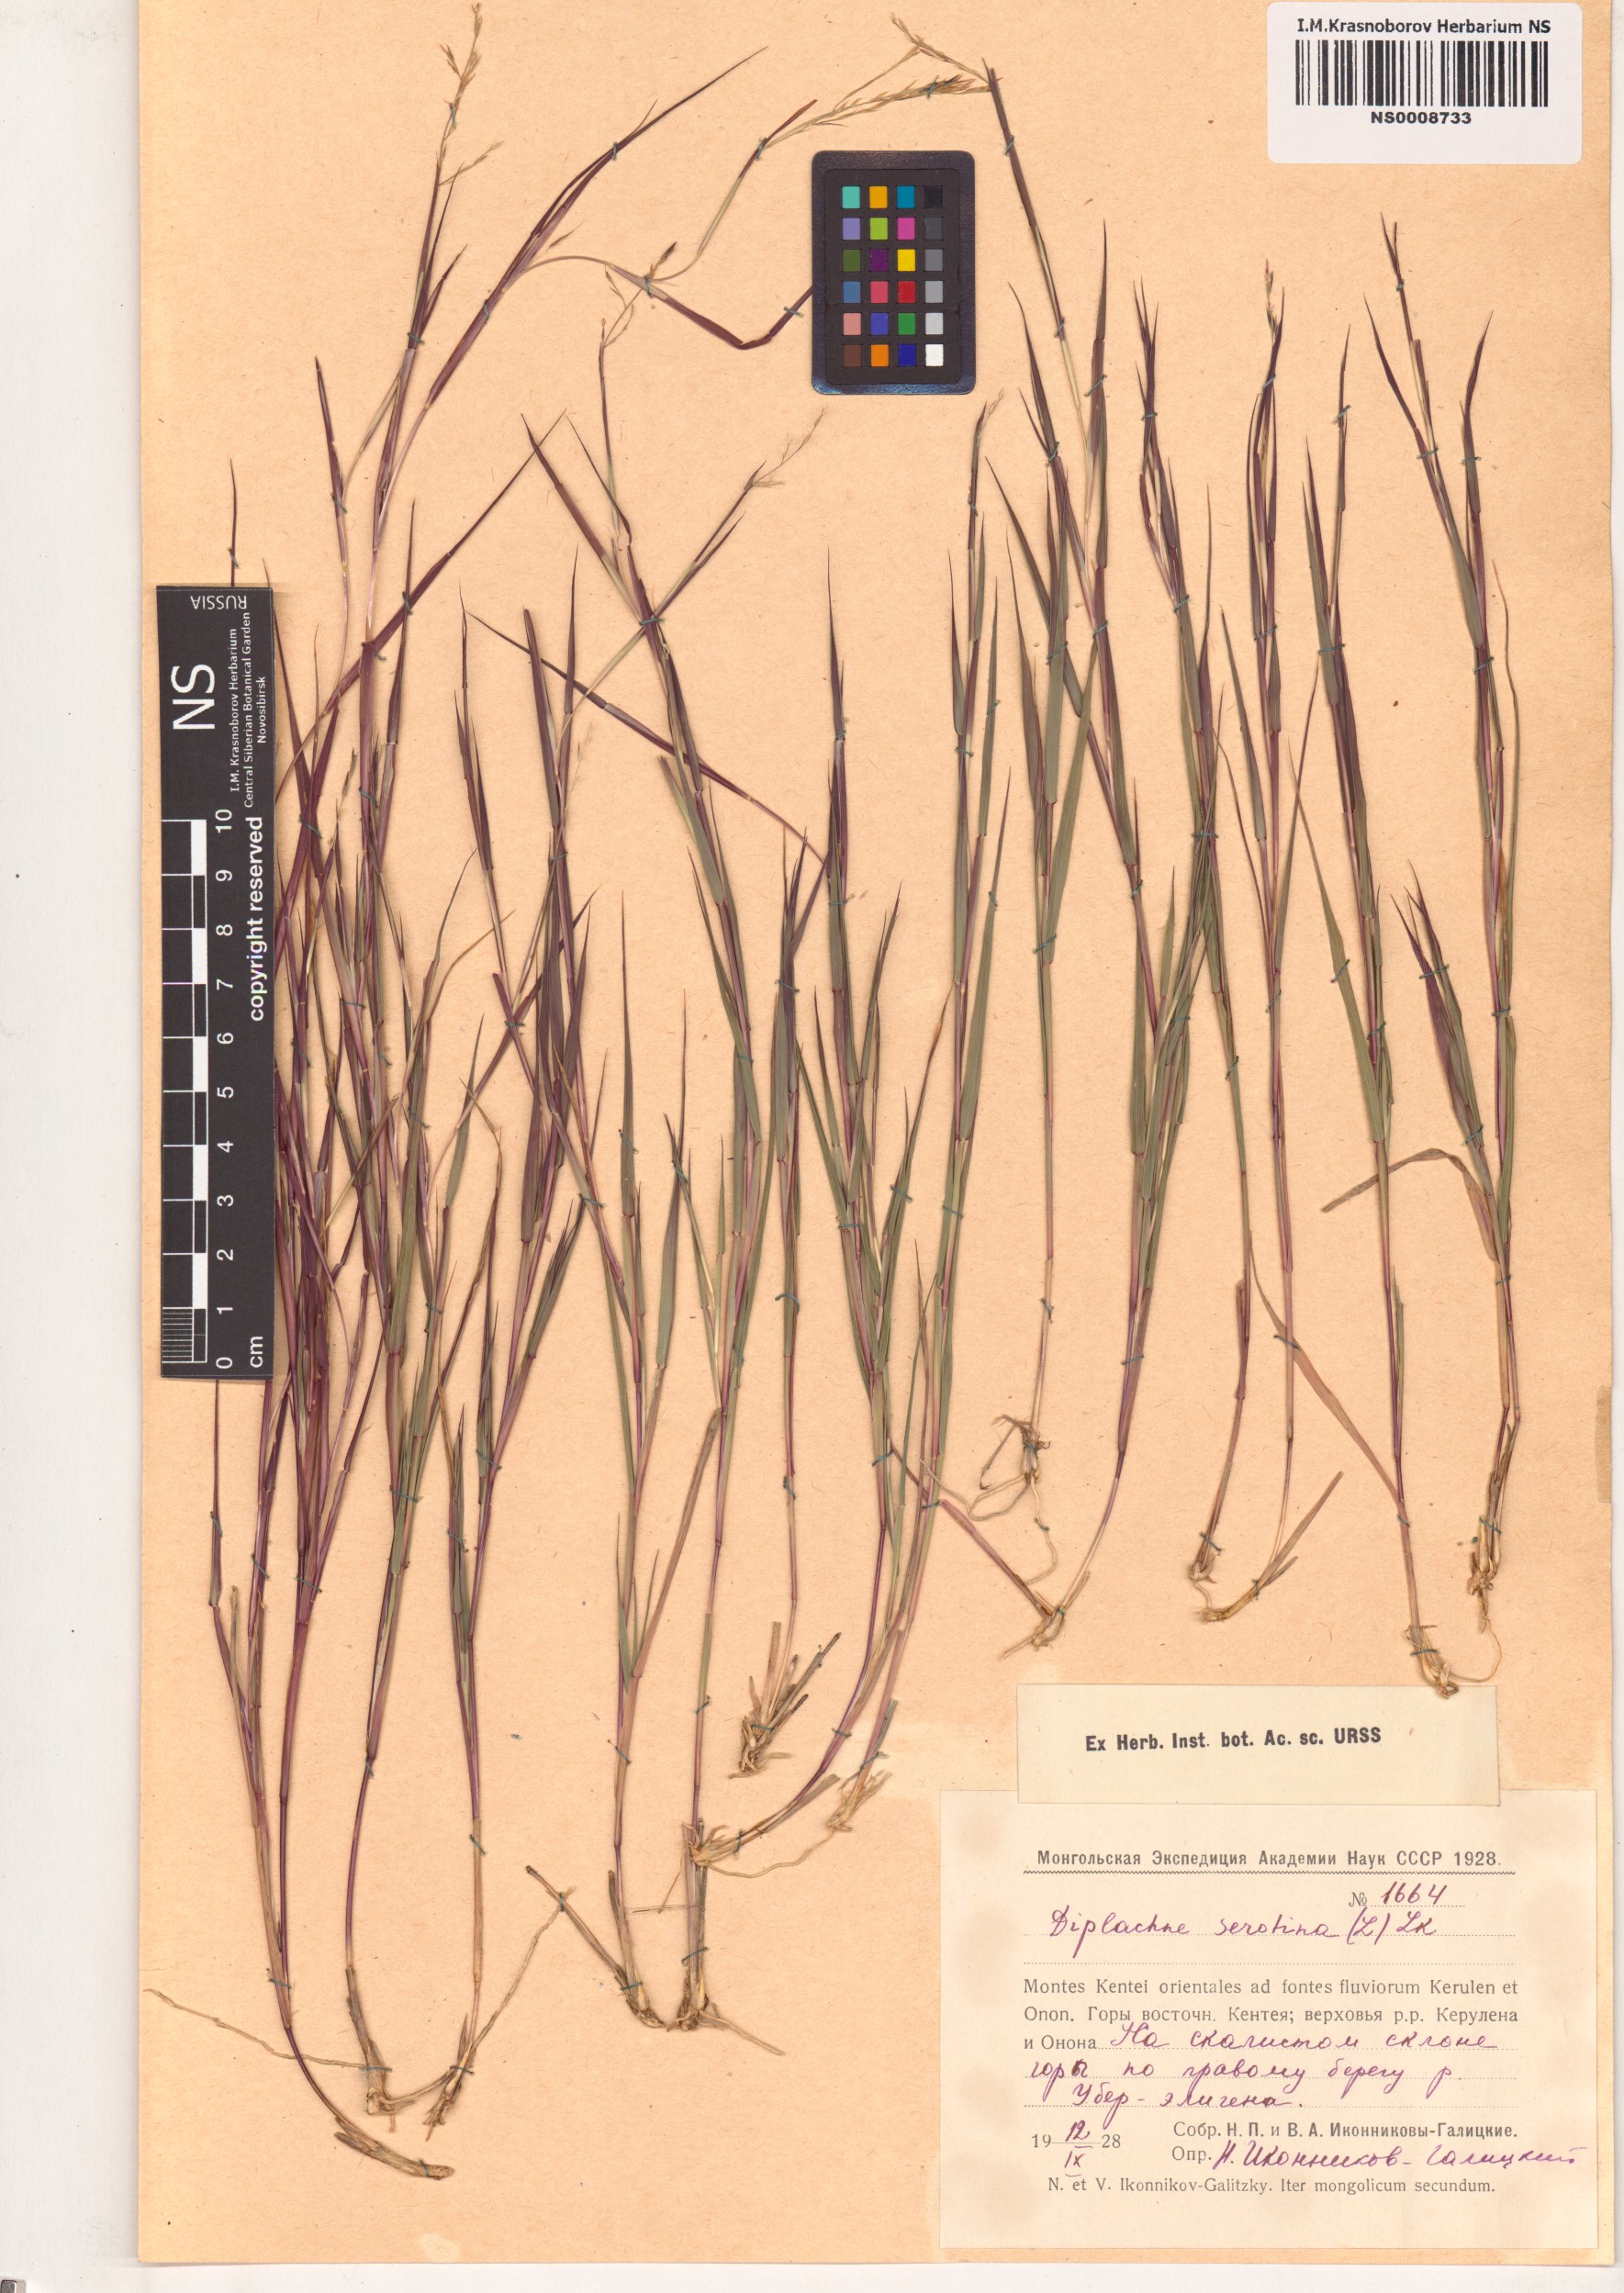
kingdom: Plantae
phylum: Tracheophyta
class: Liliopsida
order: Poales
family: Poaceae
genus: Cleistogenes
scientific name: Cleistogenes serotina
